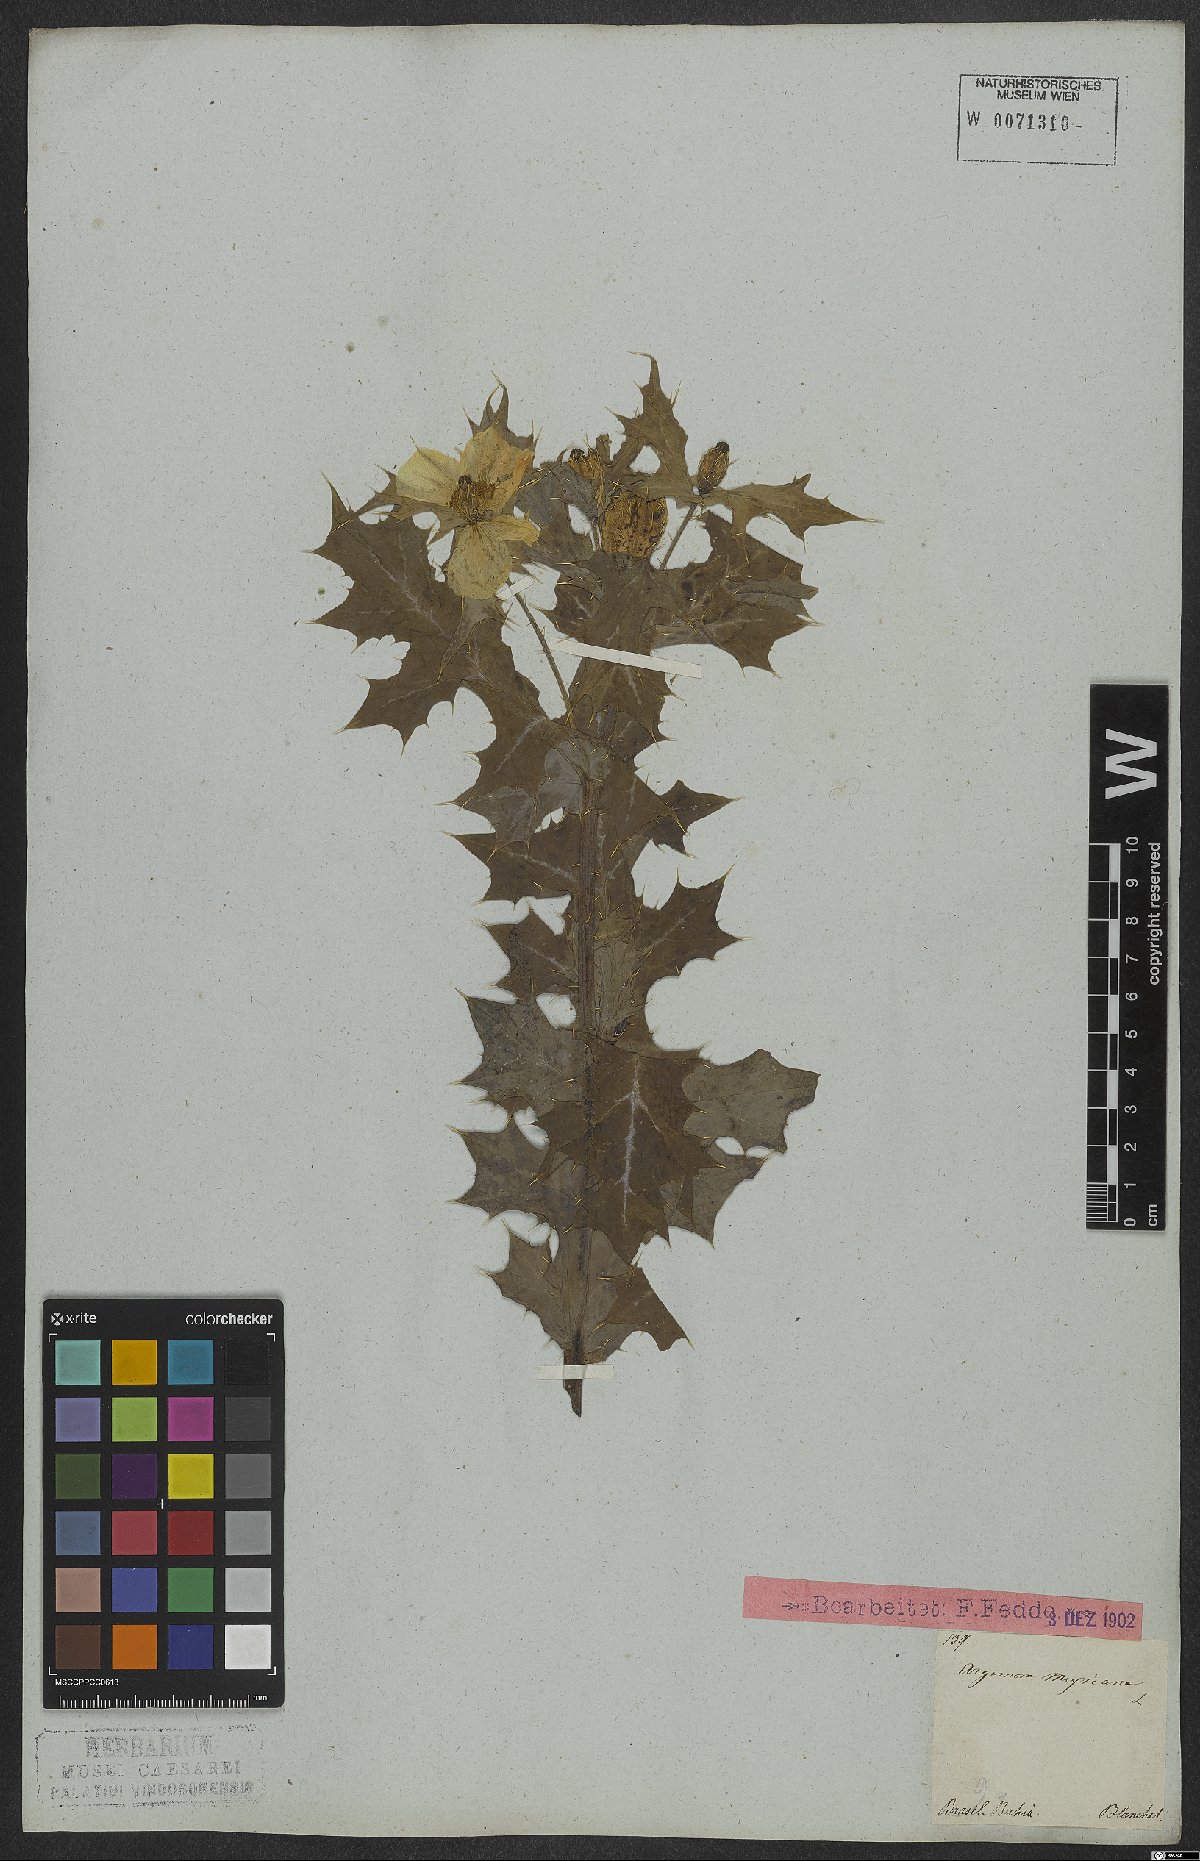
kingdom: Plantae
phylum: Tracheophyta
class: Magnoliopsida
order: Ranunculales
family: Papaveraceae
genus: Argemone
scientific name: Argemone mexicana
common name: Mexican poppy
